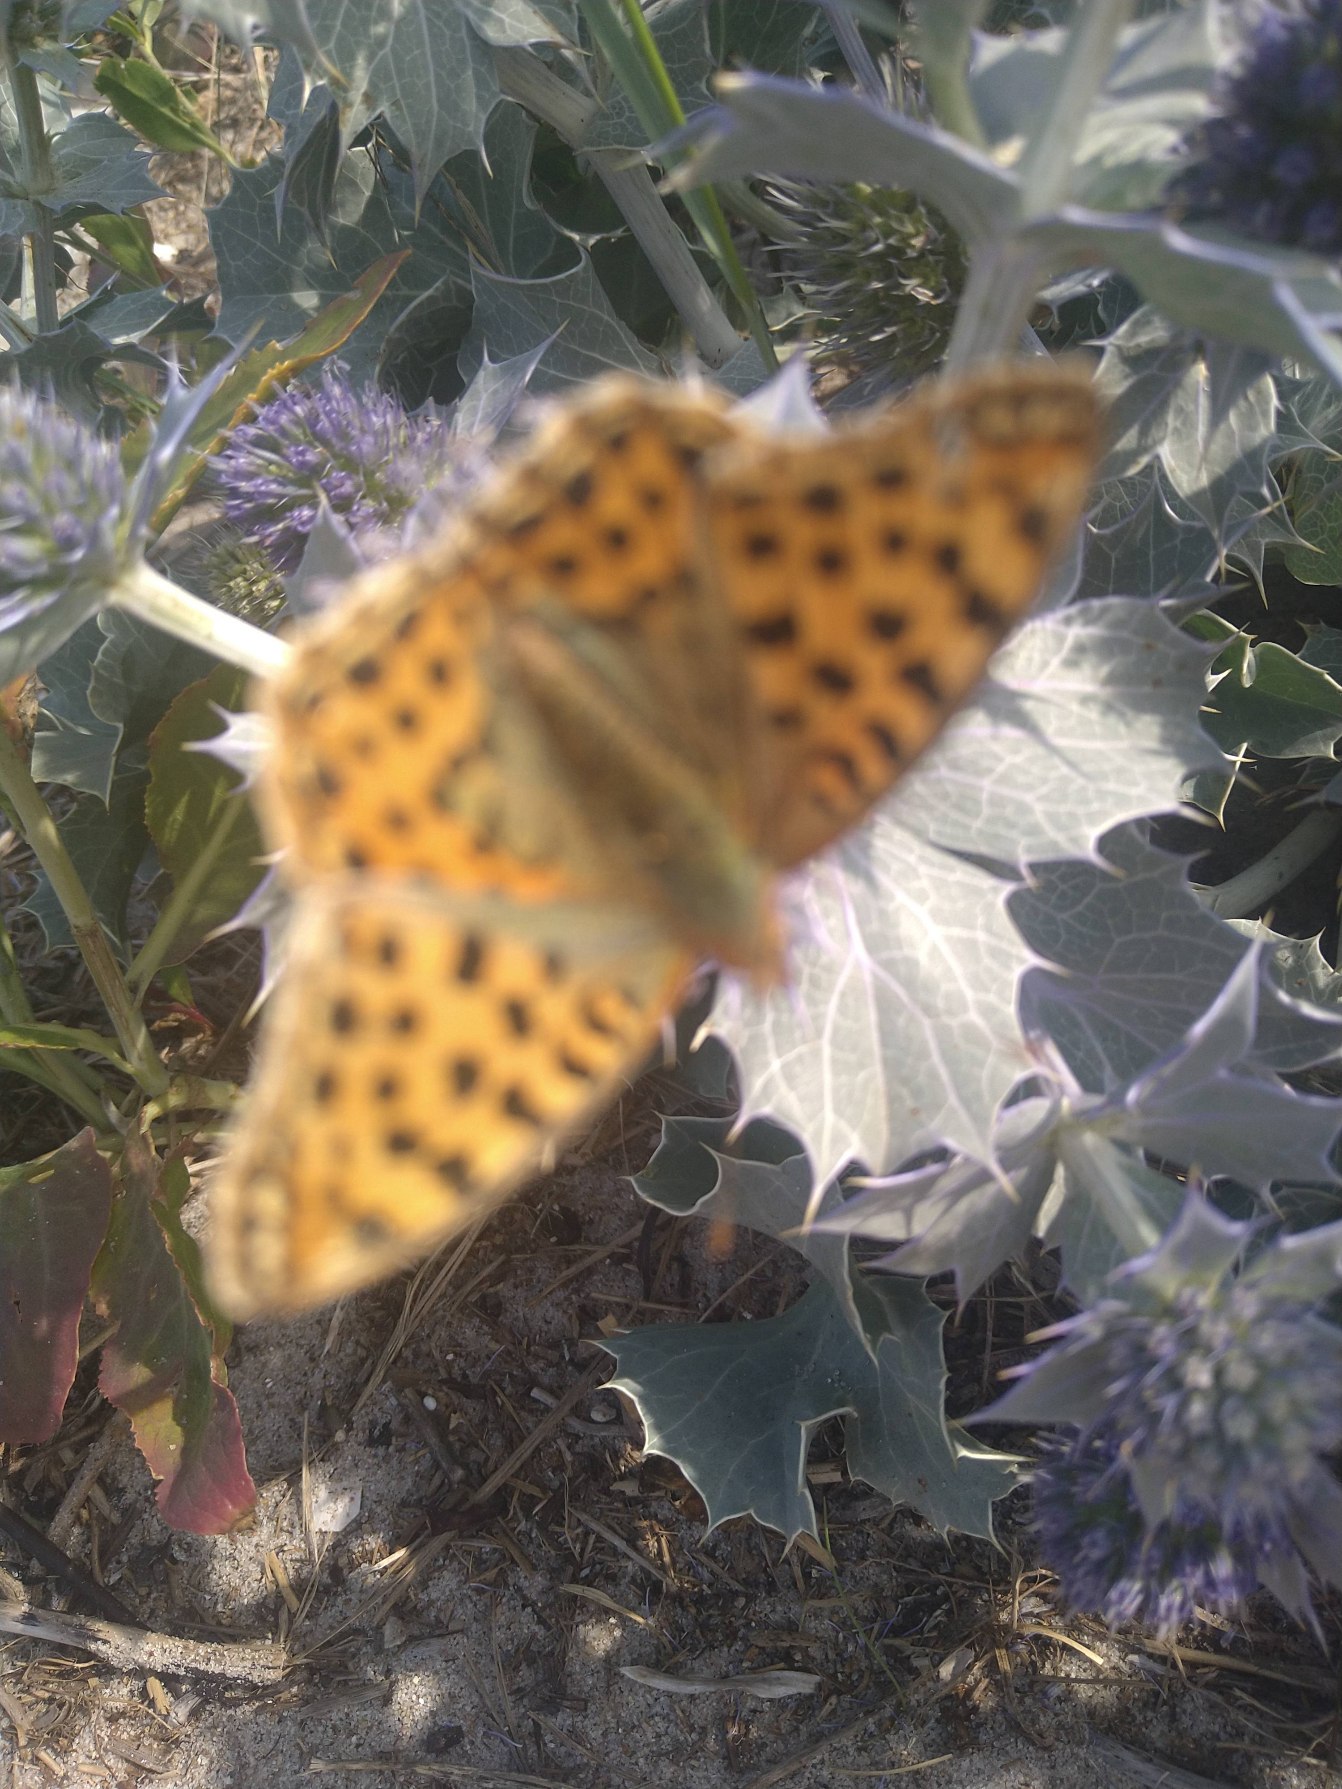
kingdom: Animalia
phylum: Arthropoda
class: Insecta
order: Lepidoptera
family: Nymphalidae
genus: Issoria
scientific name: Issoria lathonia
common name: Storplettet perlemorsommerfugl
